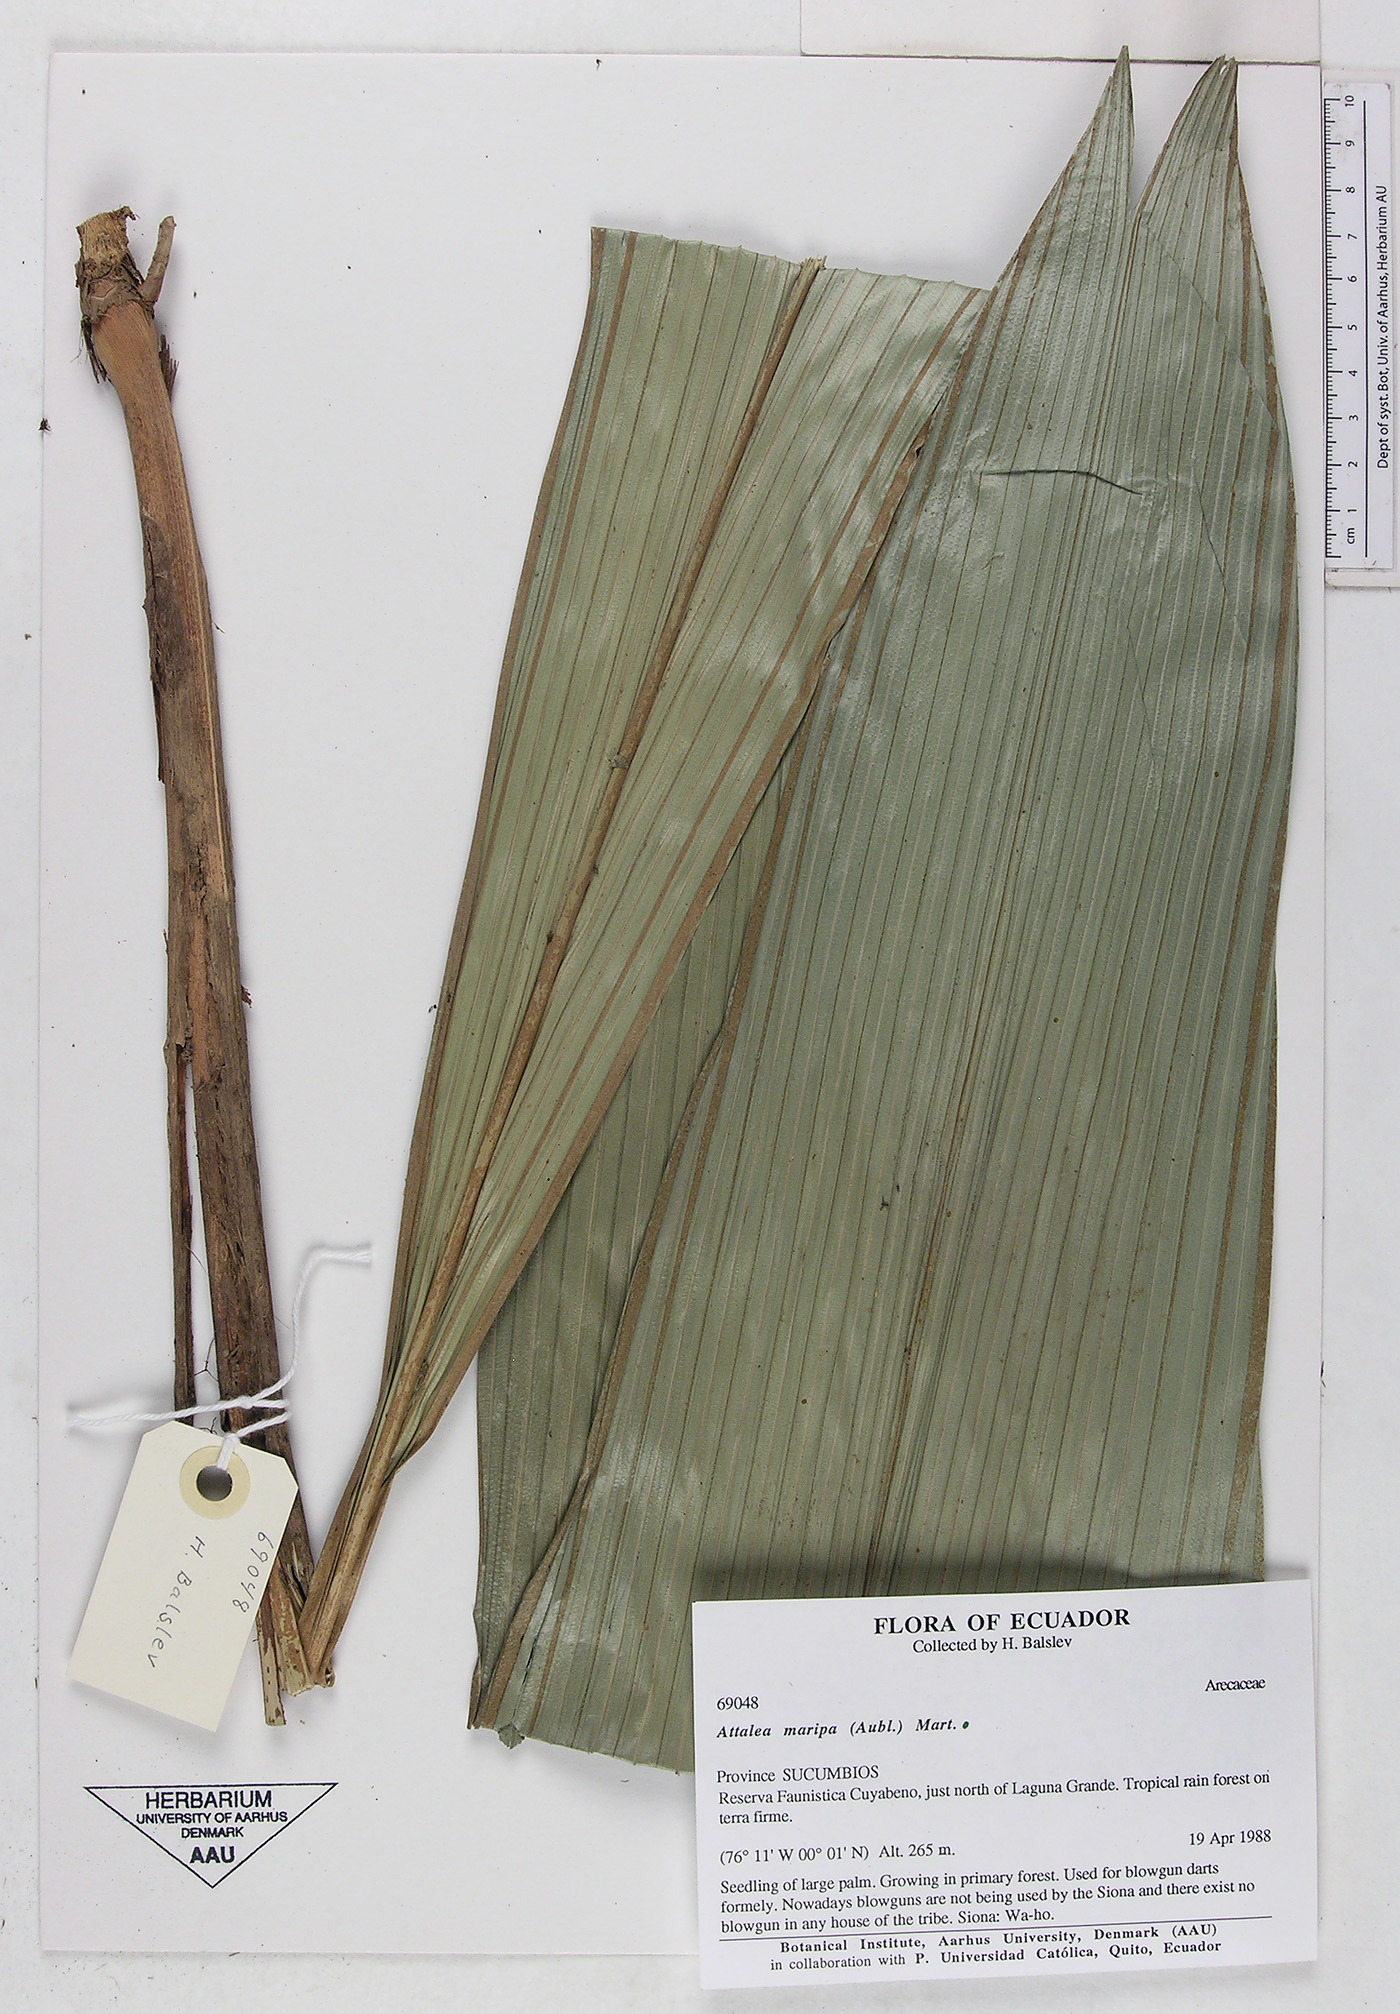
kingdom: Plantae
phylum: Tracheophyta
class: Liliopsida
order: Arecales
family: Arecaceae
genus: Attalea
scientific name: Attalea maripa
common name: Maripa palm
